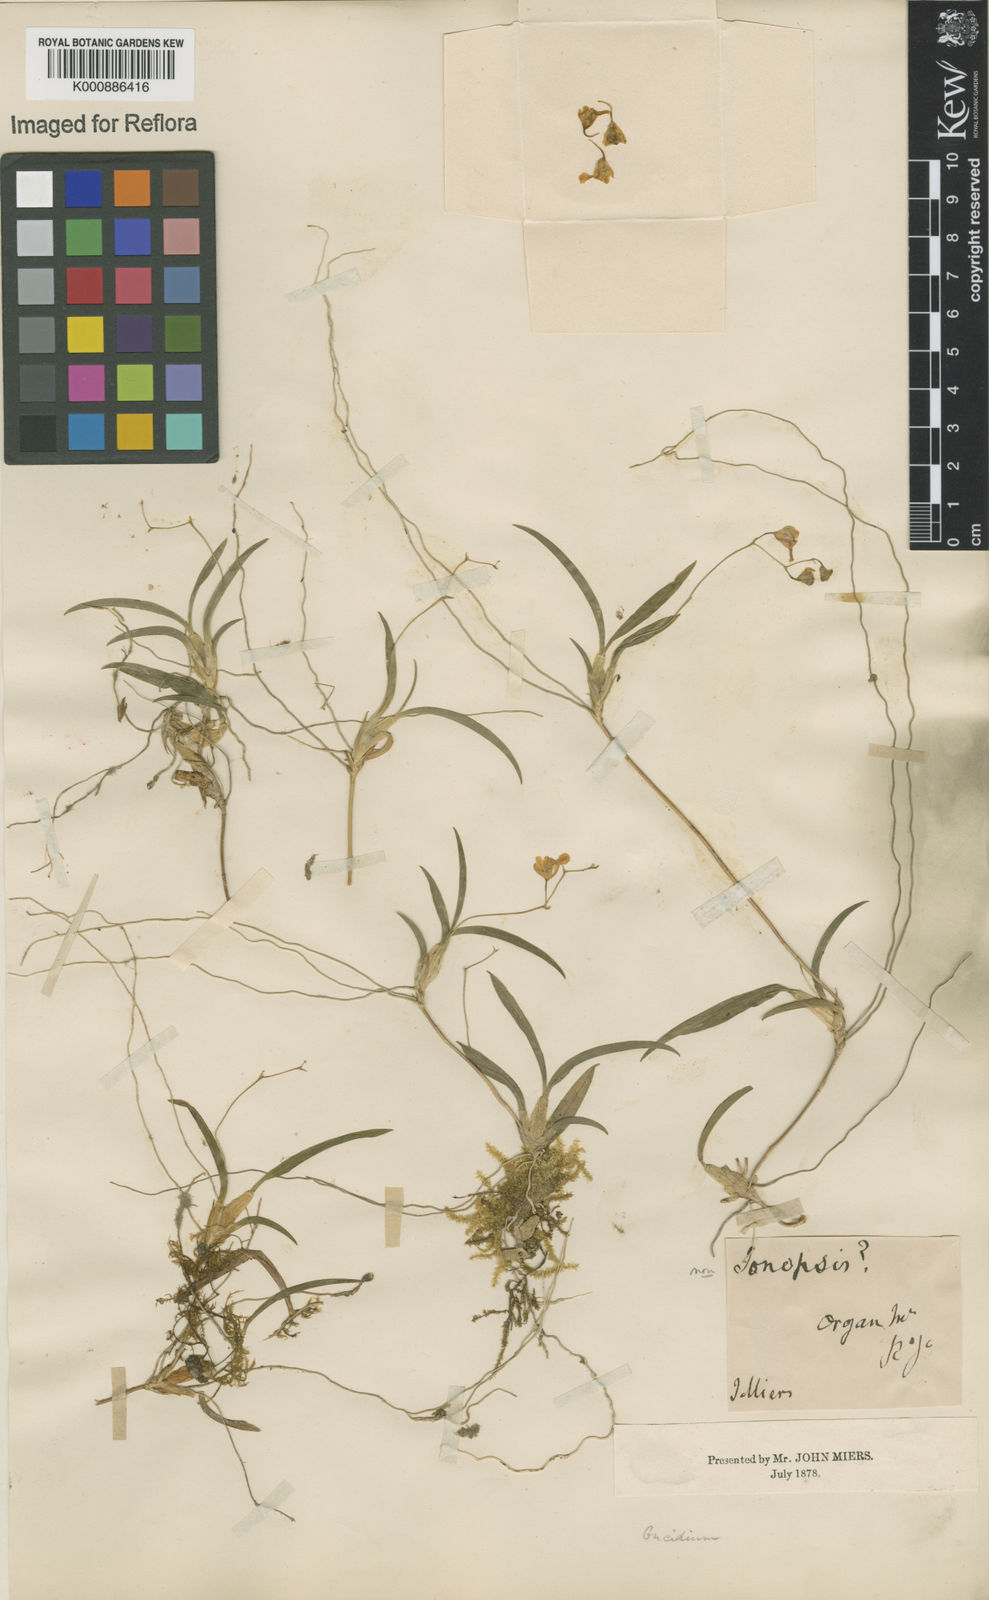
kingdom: Plantae
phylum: Tracheophyta
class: Liliopsida
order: Asparagales
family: Orchidaceae
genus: Gomesa
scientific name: Gomesa microphyta
